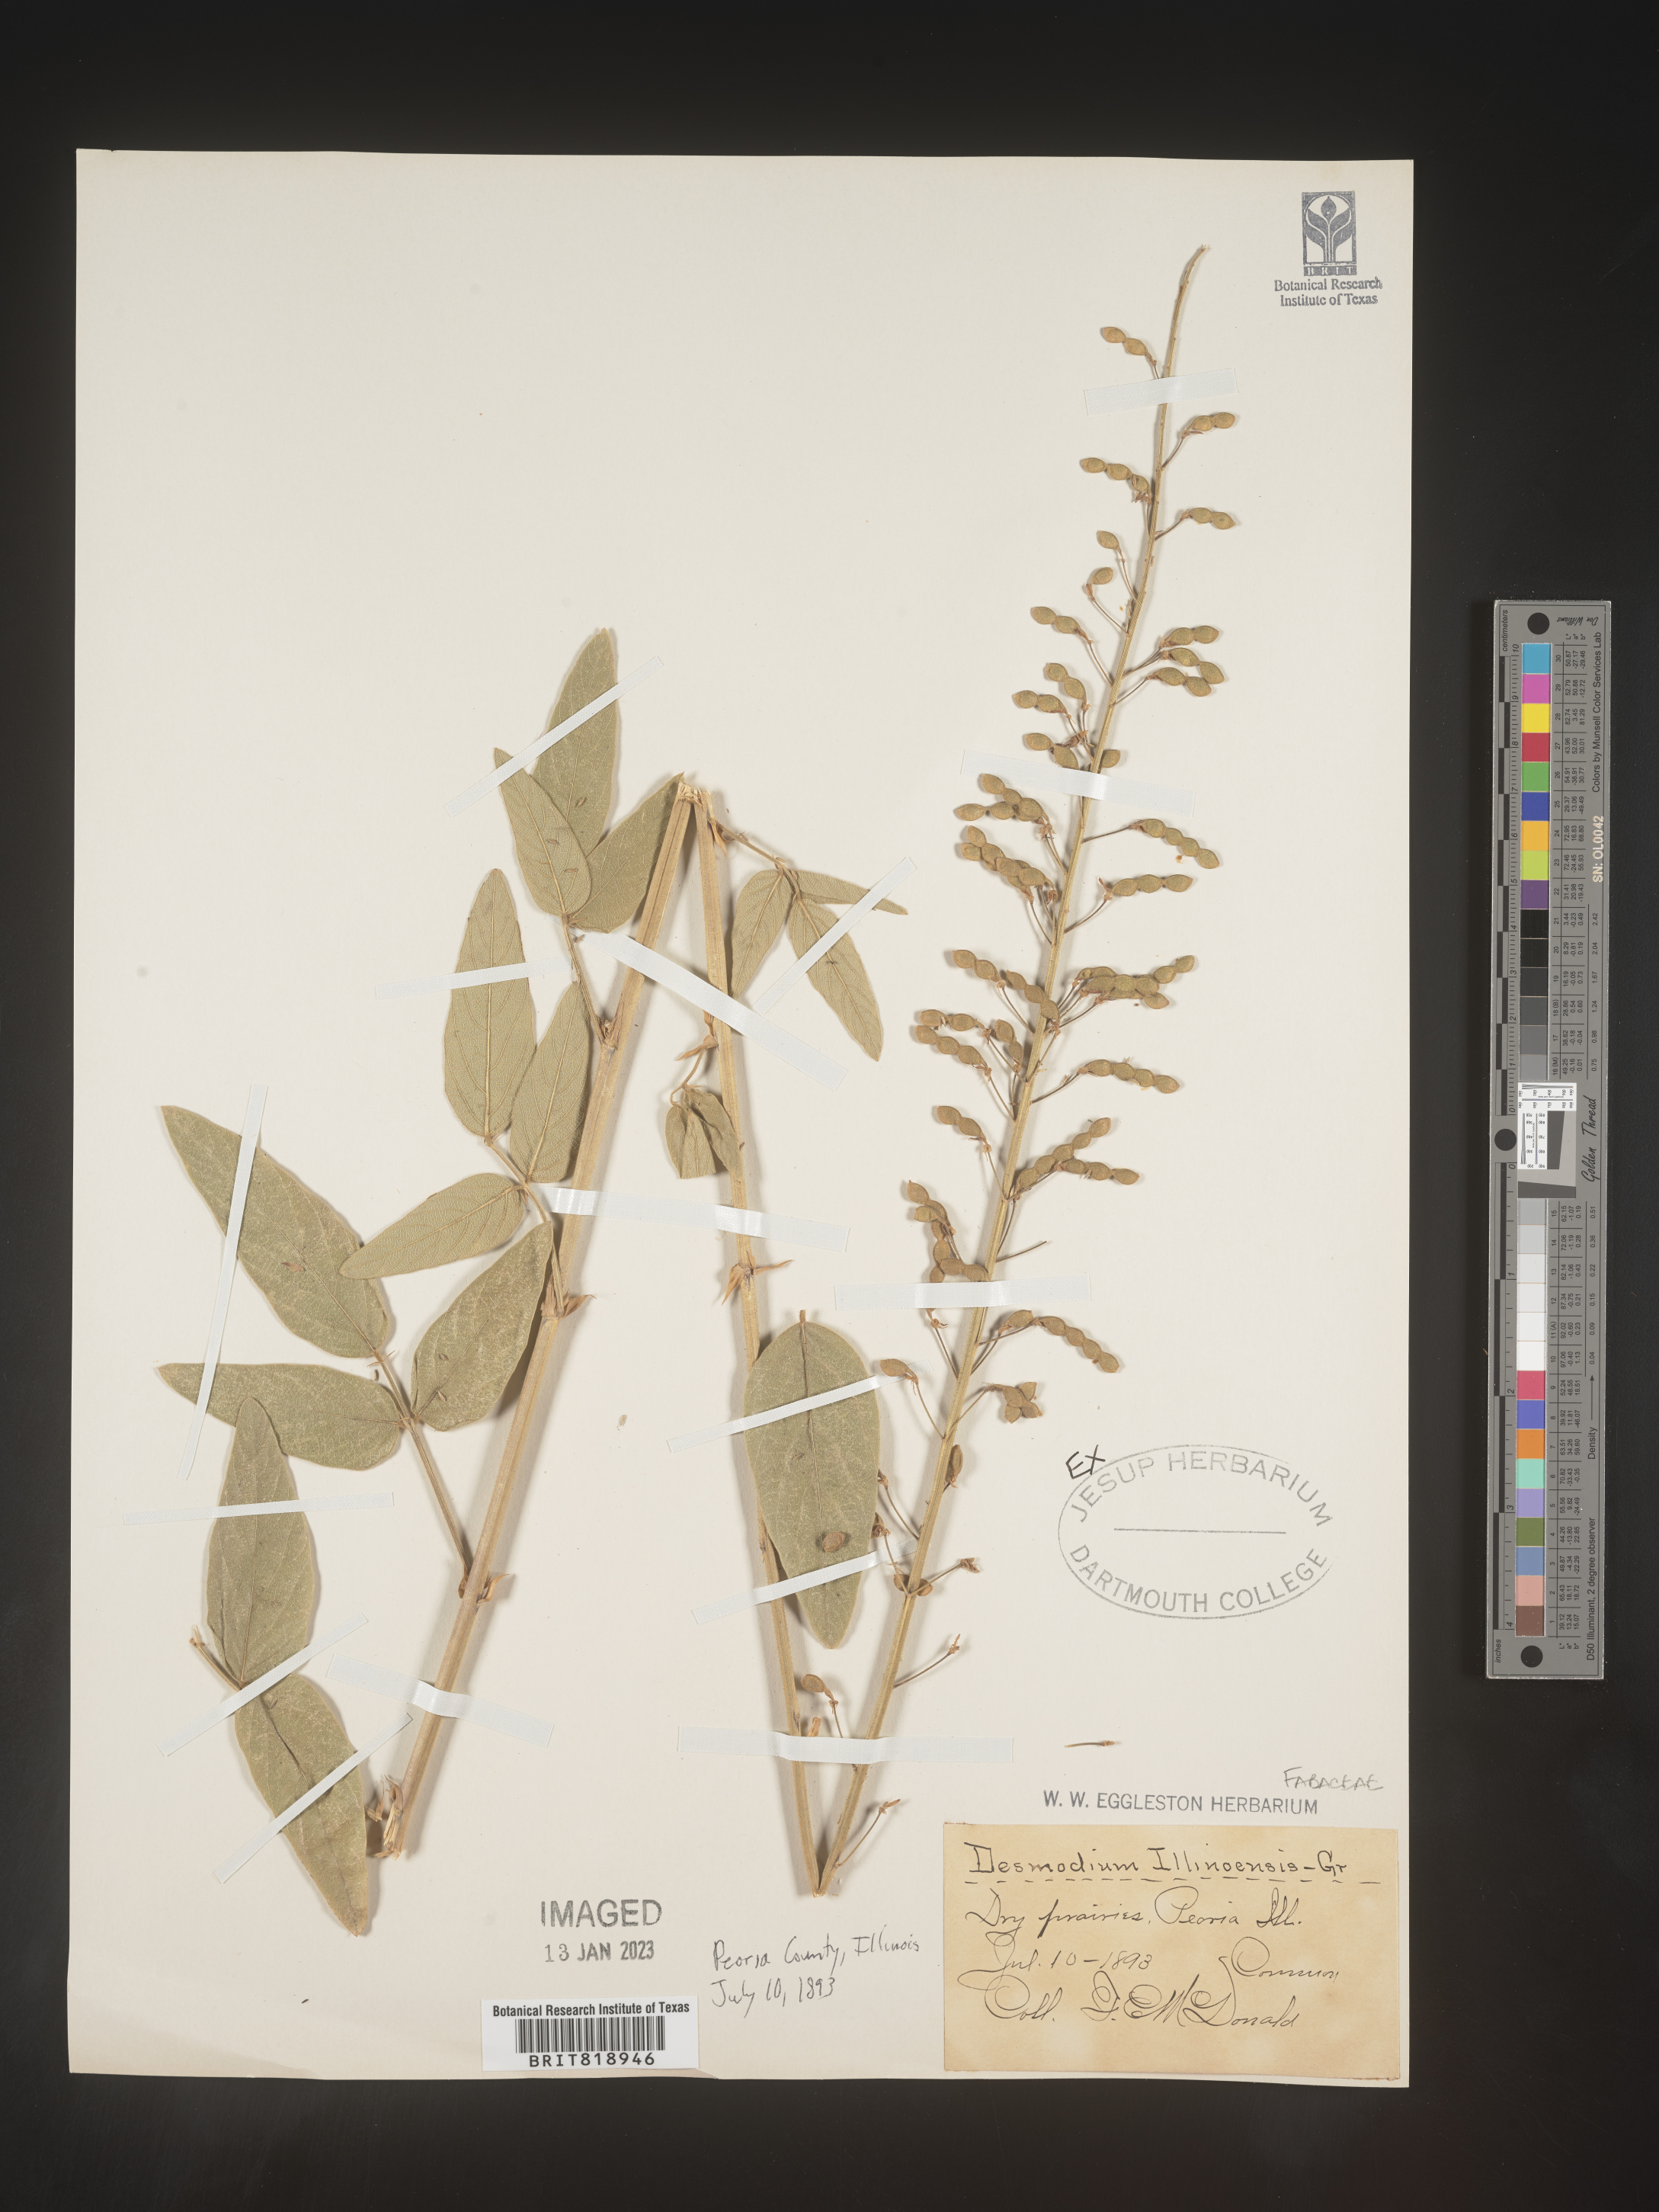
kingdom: Plantae
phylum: Tracheophyta
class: Magnoliopsida
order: Fabales
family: Fabaceae
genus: Desmodium
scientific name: Desmodium illinoense
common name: Illinois tick-clover
